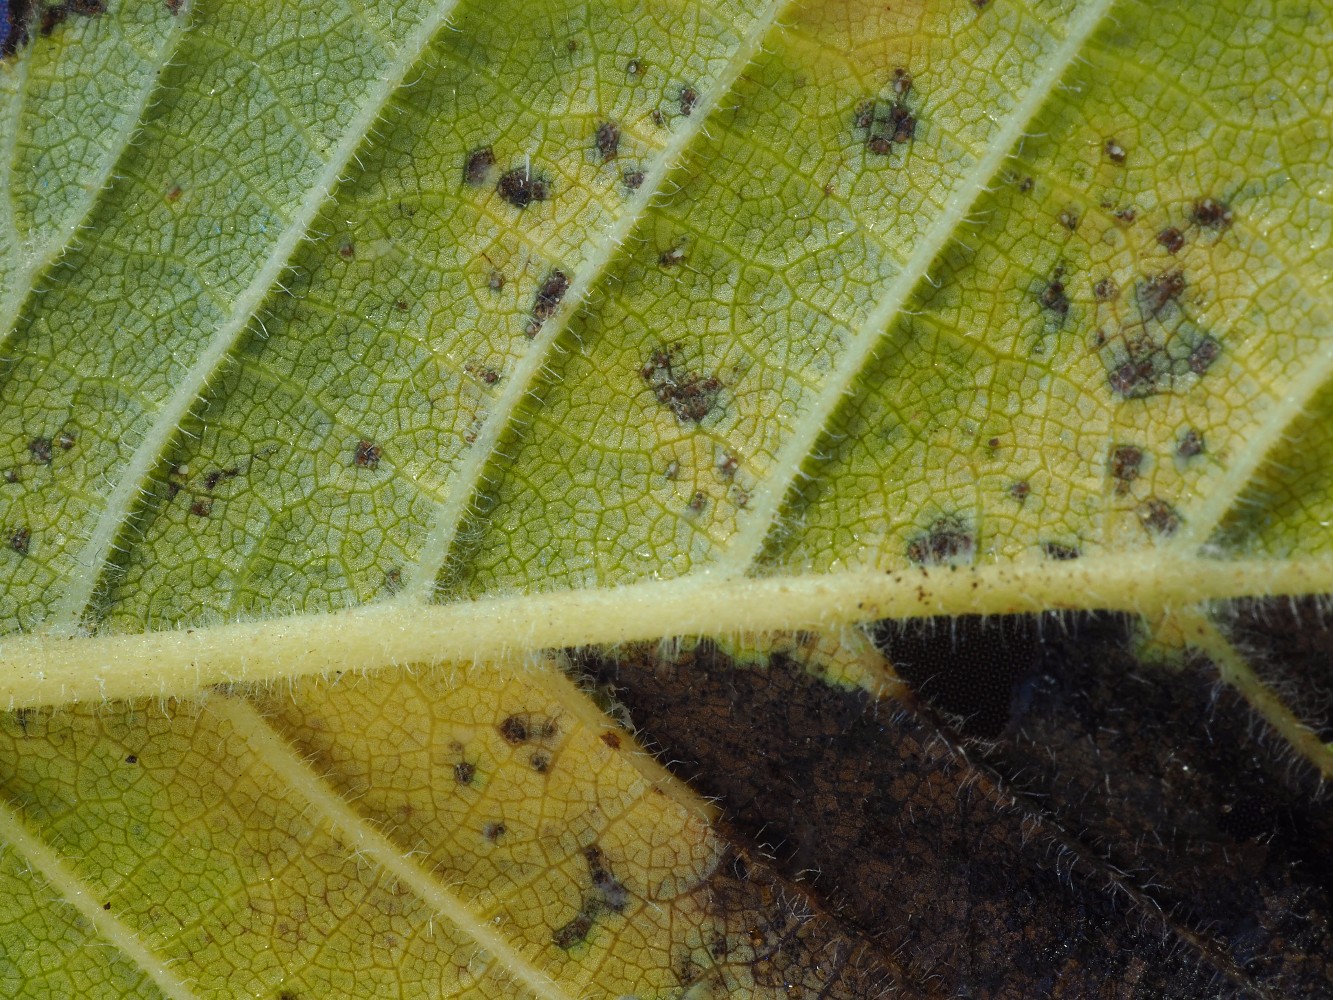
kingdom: Fungi
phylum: Ascomycota
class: Dothideomycetes
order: Mycosphaerellales
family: Mycosphaerellaceae
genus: Mycosphaerella
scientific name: Mycosphaerella ulmi
